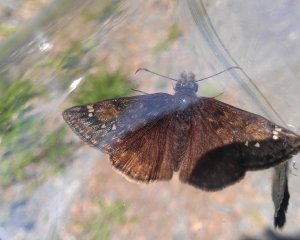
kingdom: Animalia
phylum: Arthropoda
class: Insecta
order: Lepidoptera
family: Hesperiidae
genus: Gesta
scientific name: Gesta
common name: Juvenal's Duskywing
